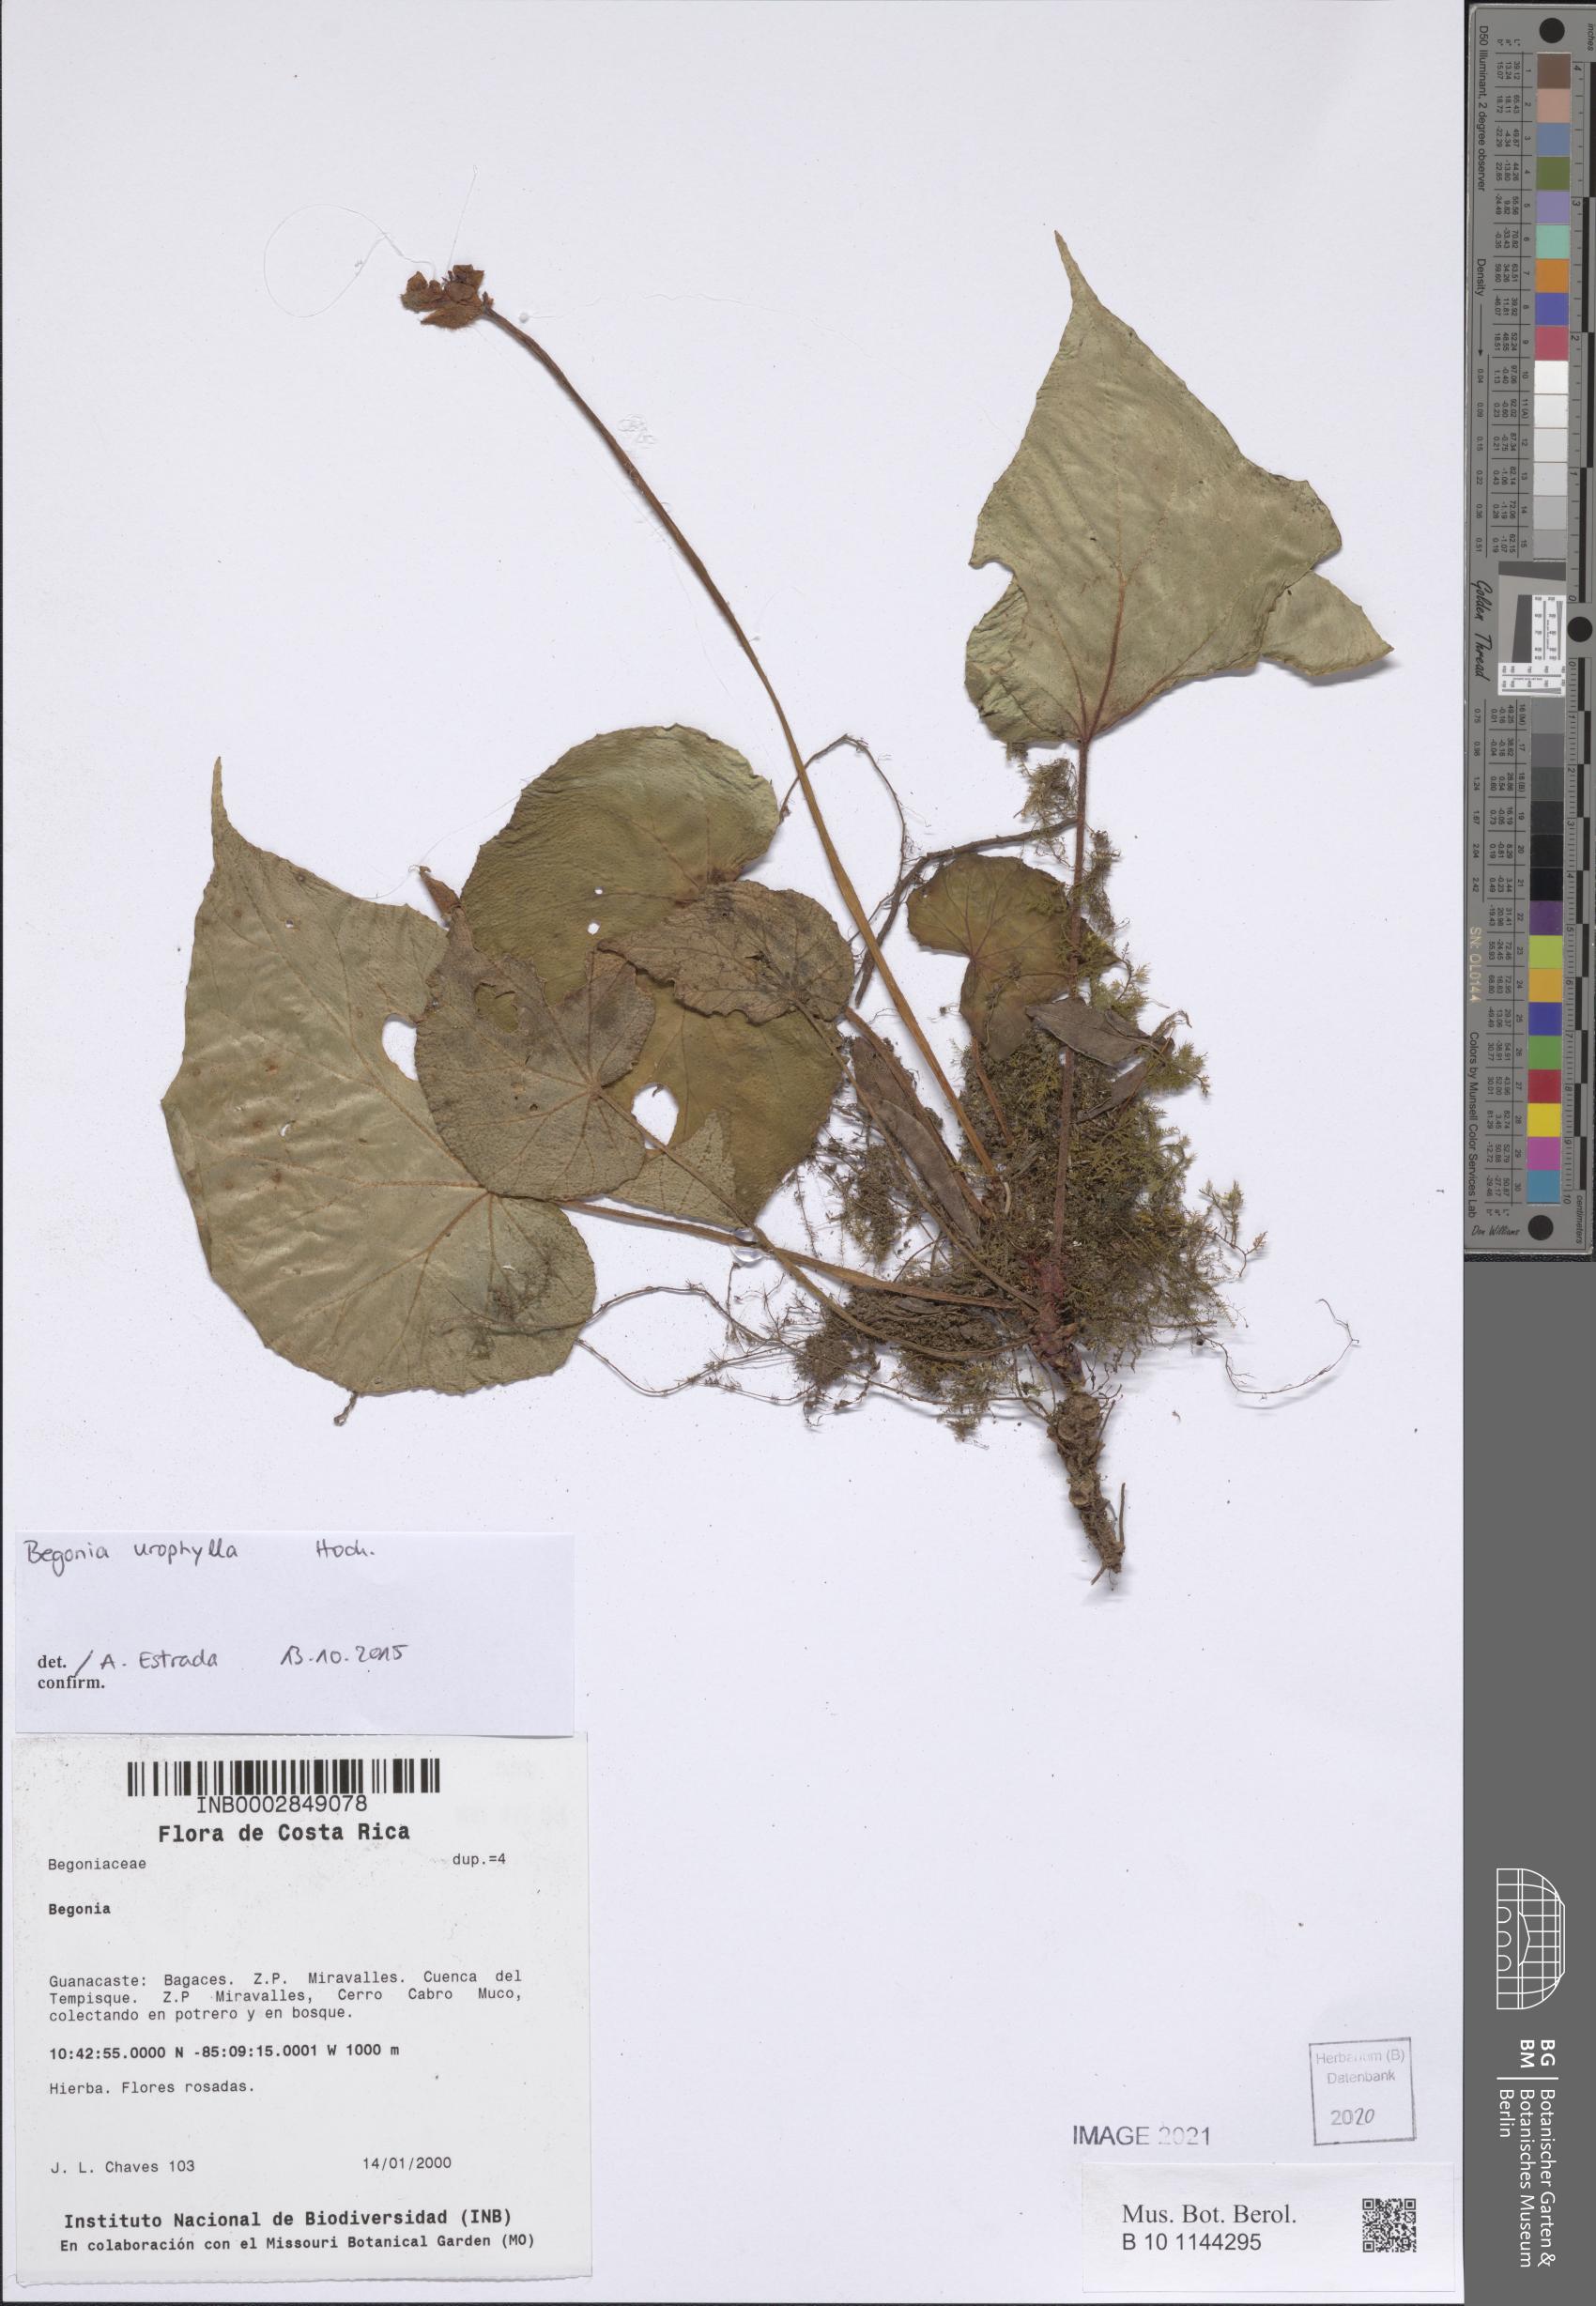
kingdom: Plantae
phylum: Tracheophyta
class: Magnoliopsida
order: Cucurbitales
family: Begoniaceae
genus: Begonia
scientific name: Begonia
